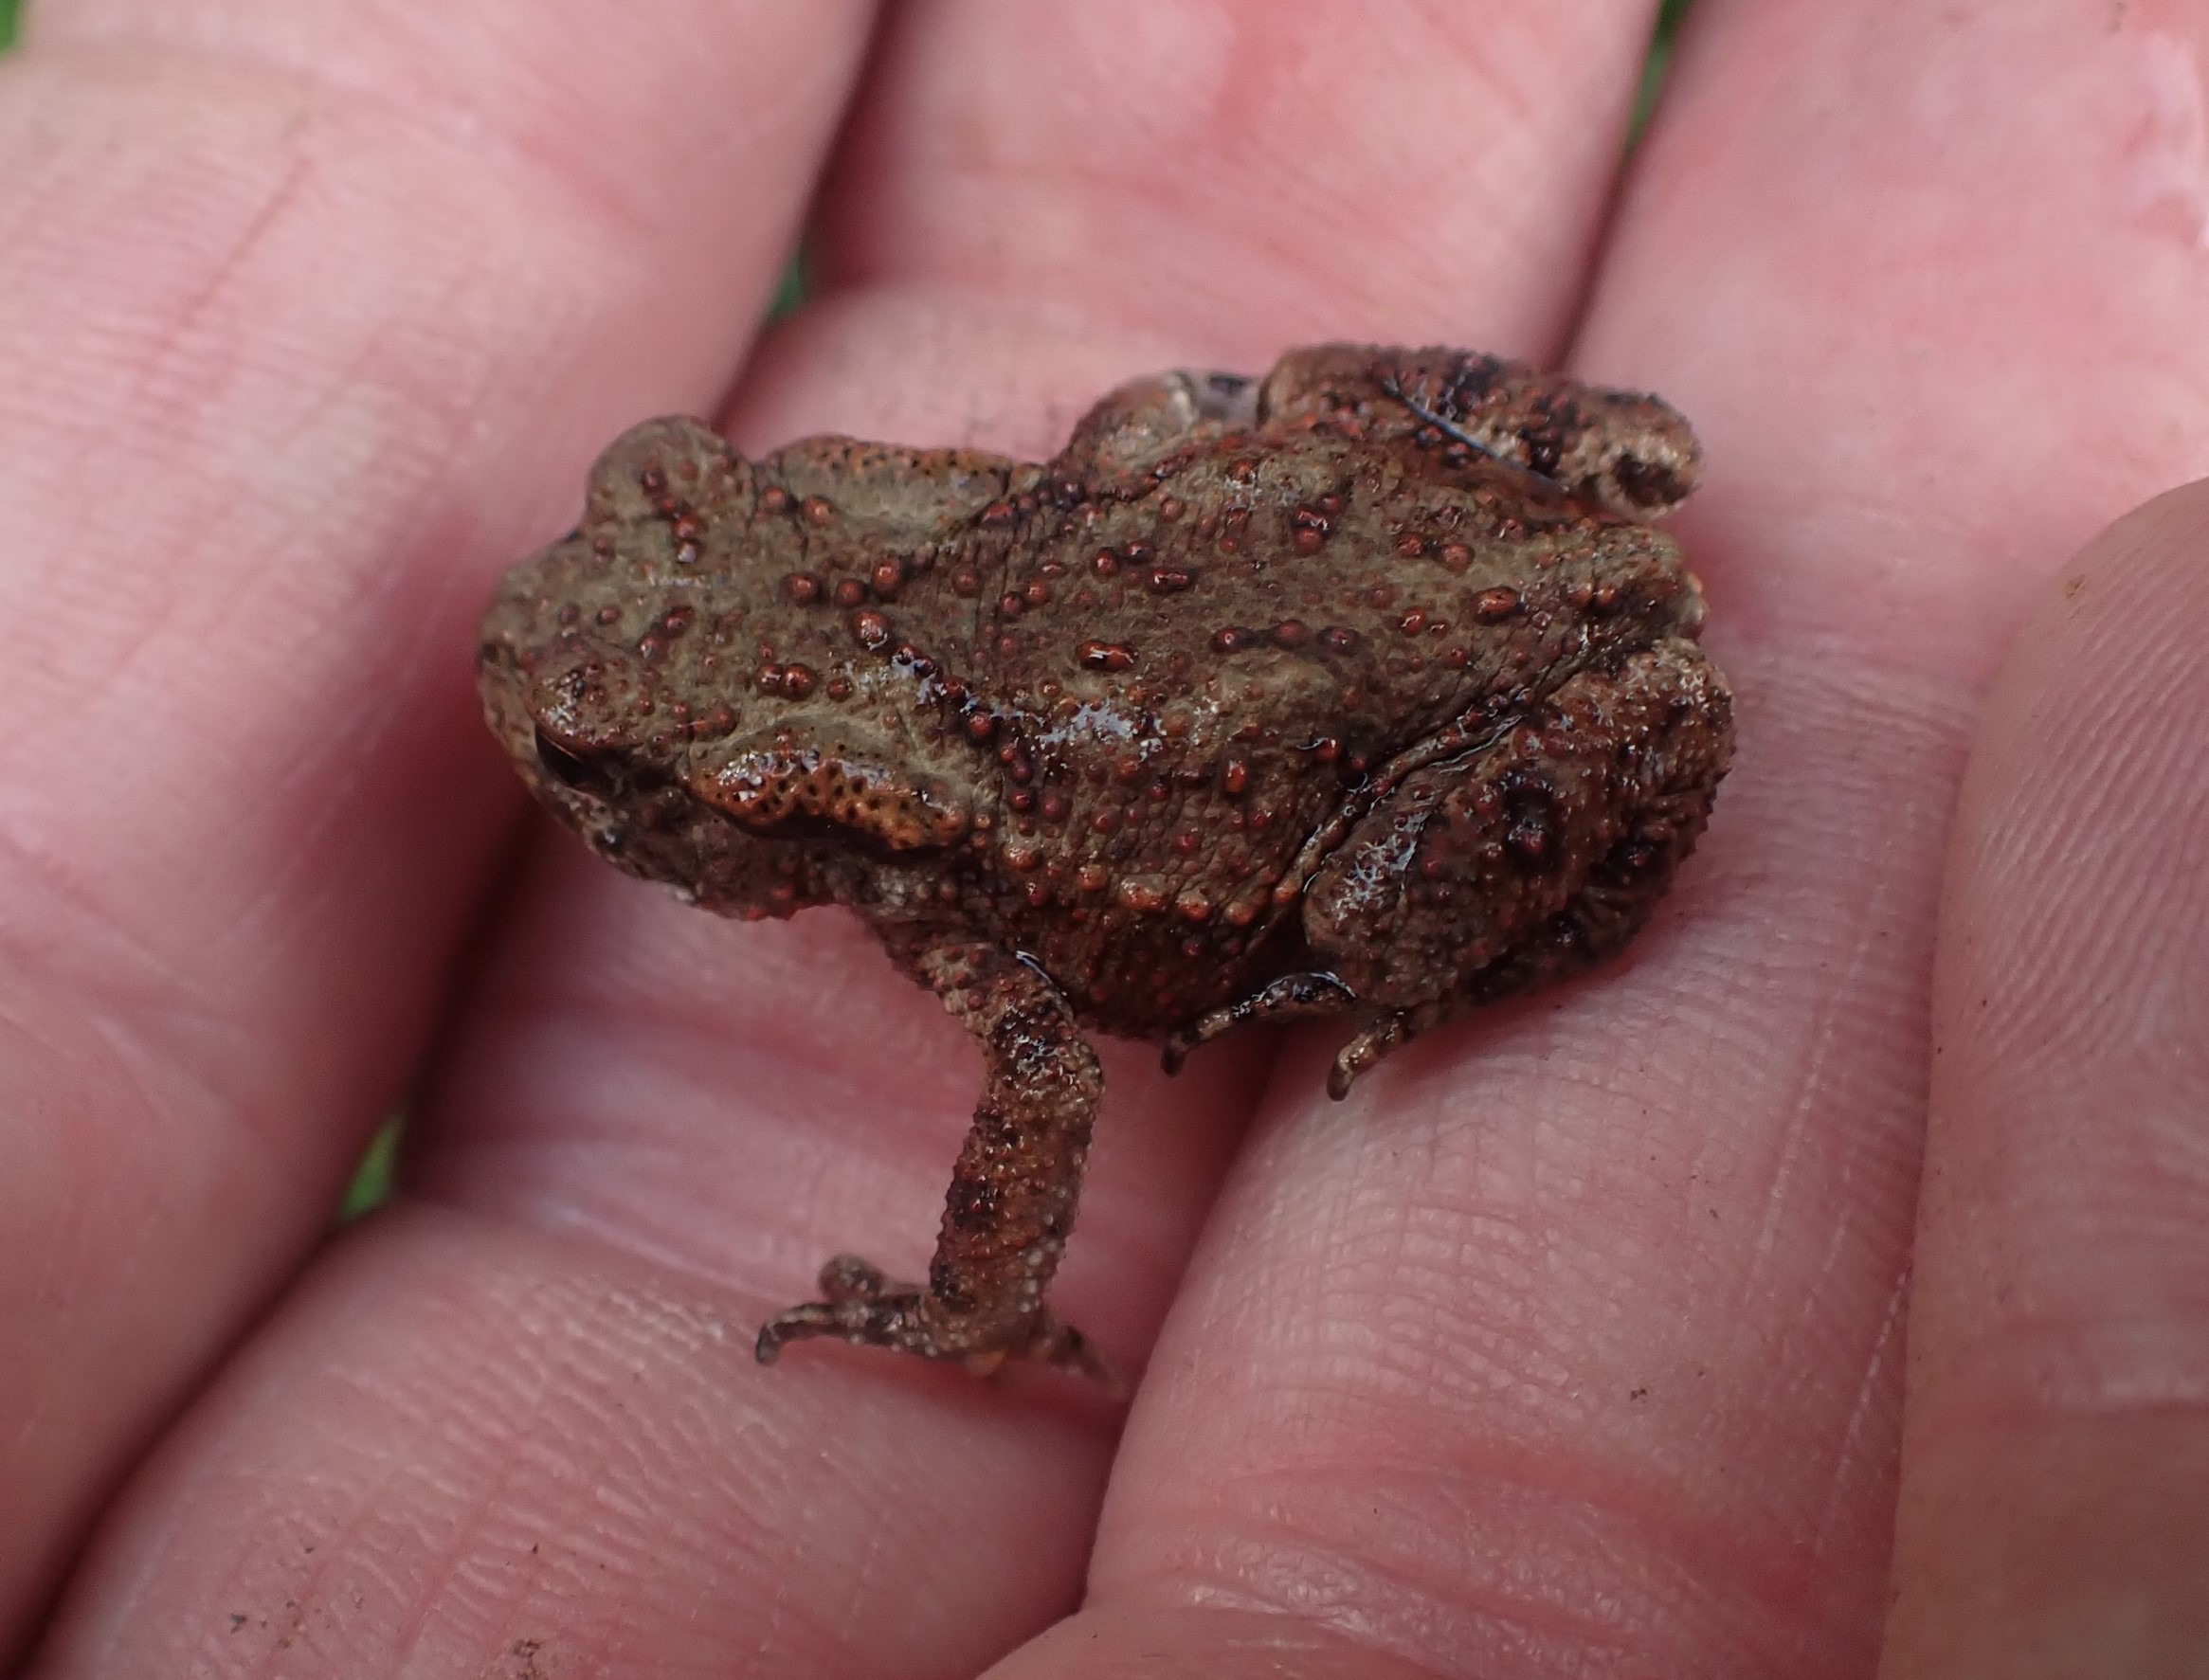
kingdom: Animalia
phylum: Chordata
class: Amphibia
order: Anura
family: Bufonidae
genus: Bufo
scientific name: Bufo bufo
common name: Skrubtudse
